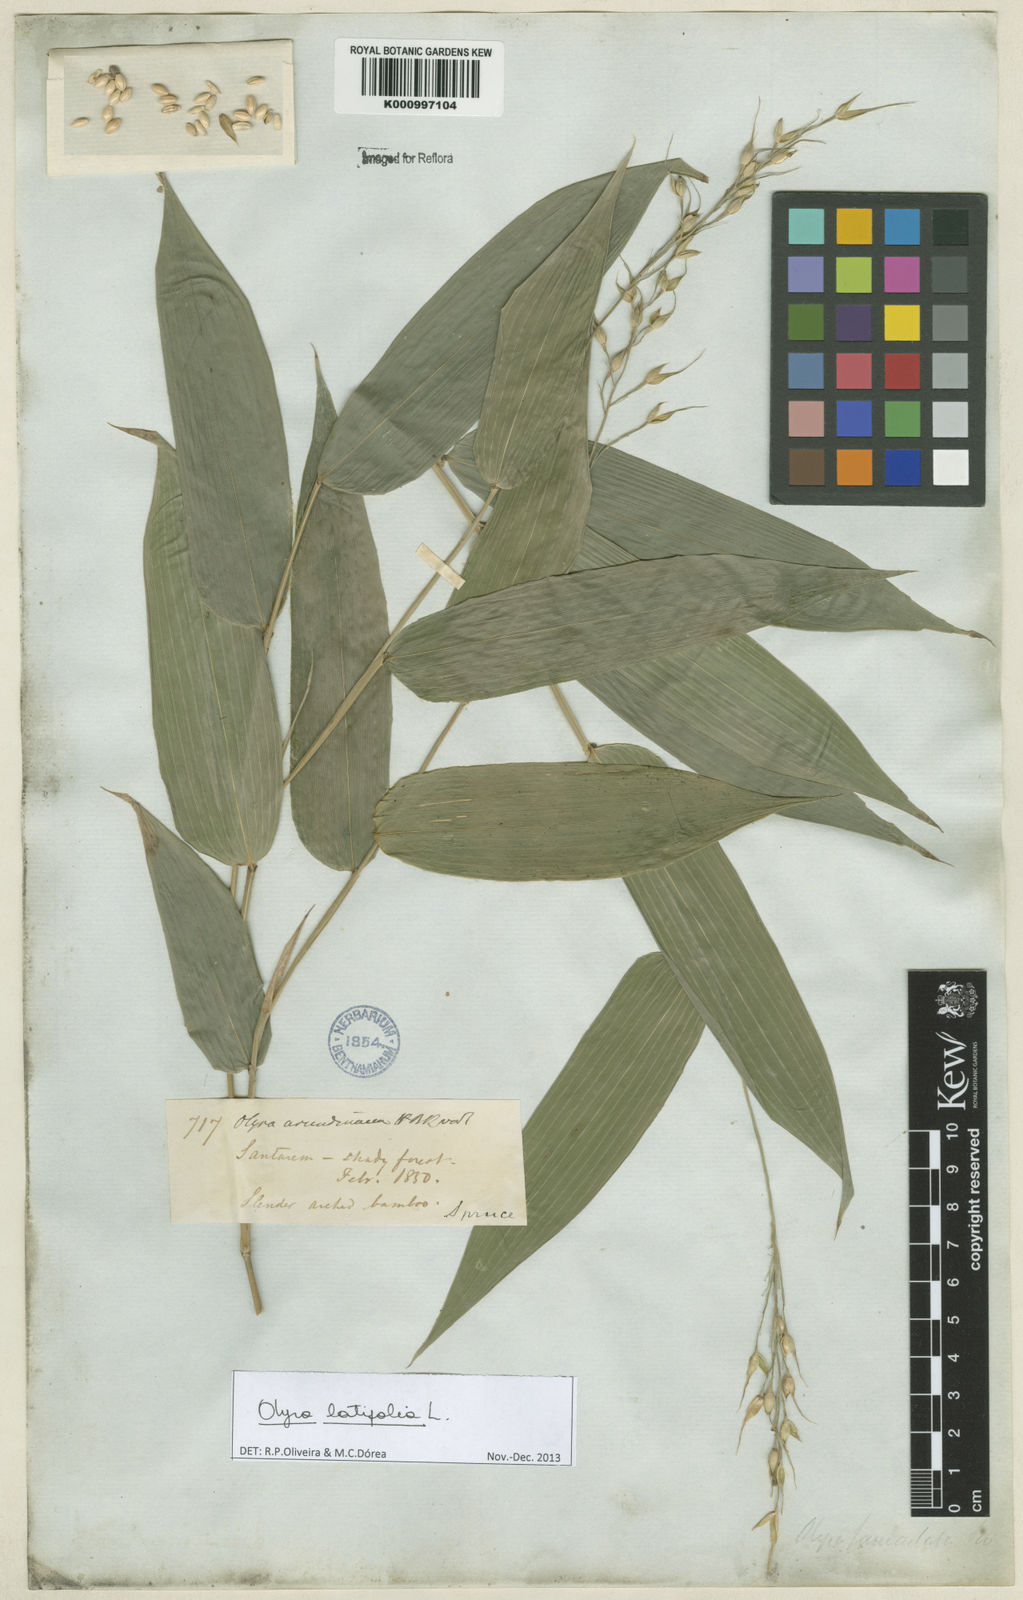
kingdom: Plantae
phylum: Tracheophyta
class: Liliopsida
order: Poales
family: Poaceae
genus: Olyra
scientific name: Olyra latifolia
